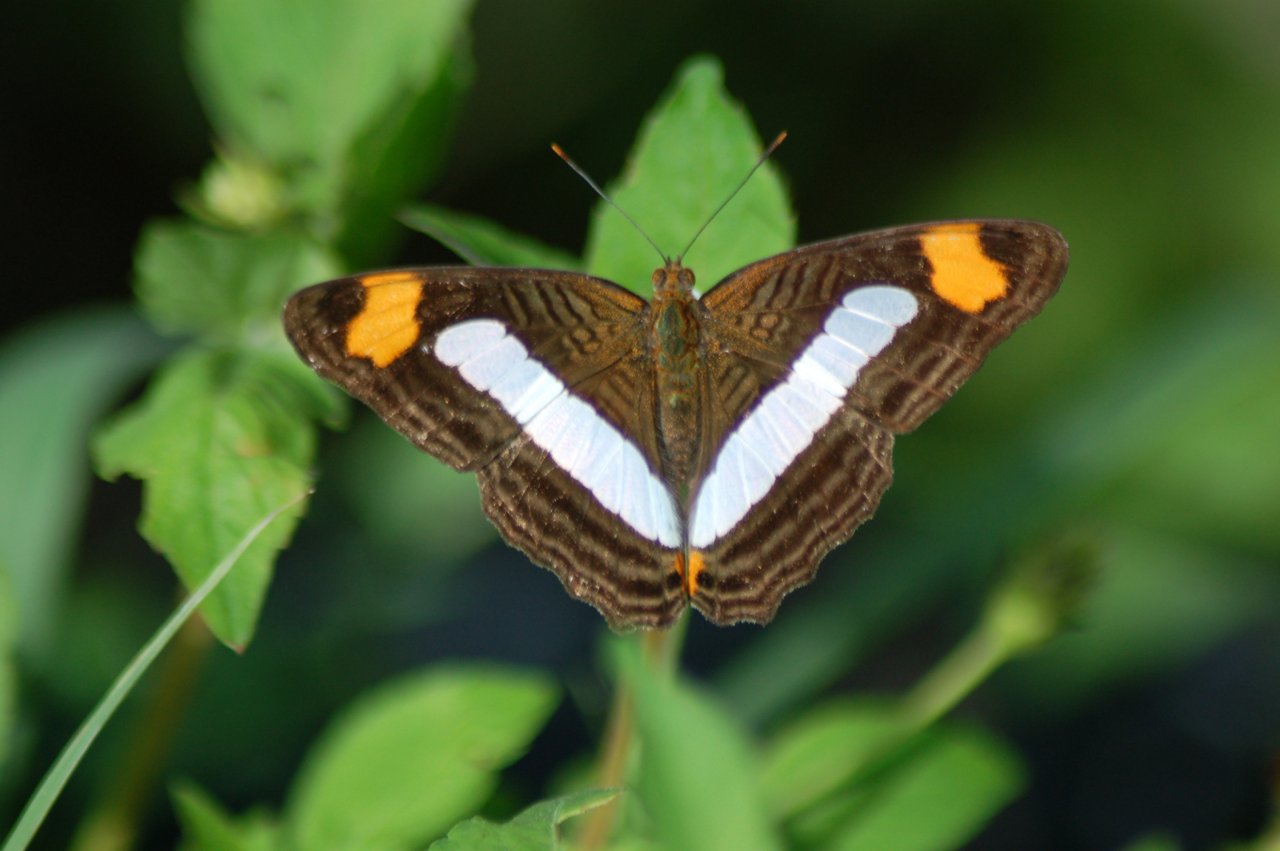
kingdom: Animalia
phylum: Arthropoda
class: Insecta
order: Lepidoptera
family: Nymphalidae
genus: Limenitis
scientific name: Limenitis iphiclus
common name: Iphicleola Sister
